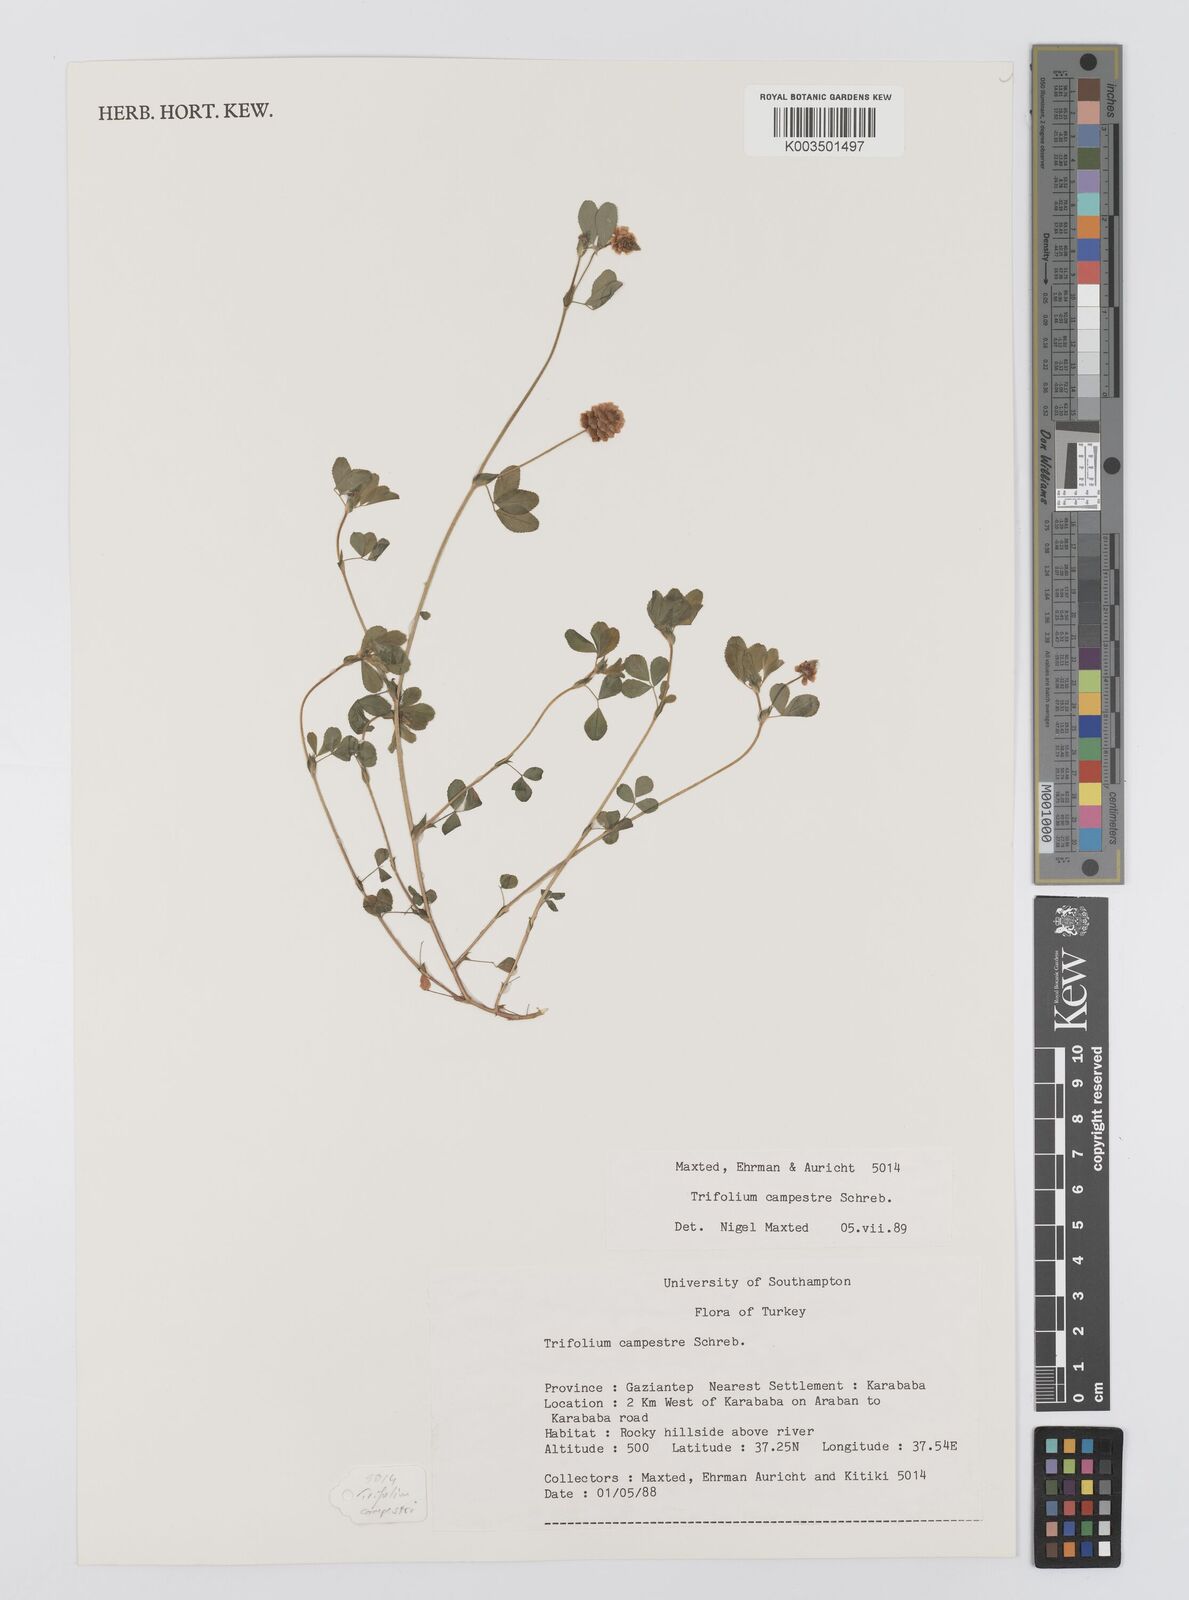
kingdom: Plantae
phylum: Tracheophyta
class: Magnoliopsida
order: Fabales
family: Fabaceae
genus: Trifolium
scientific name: Trifolium campestre
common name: Field clover
